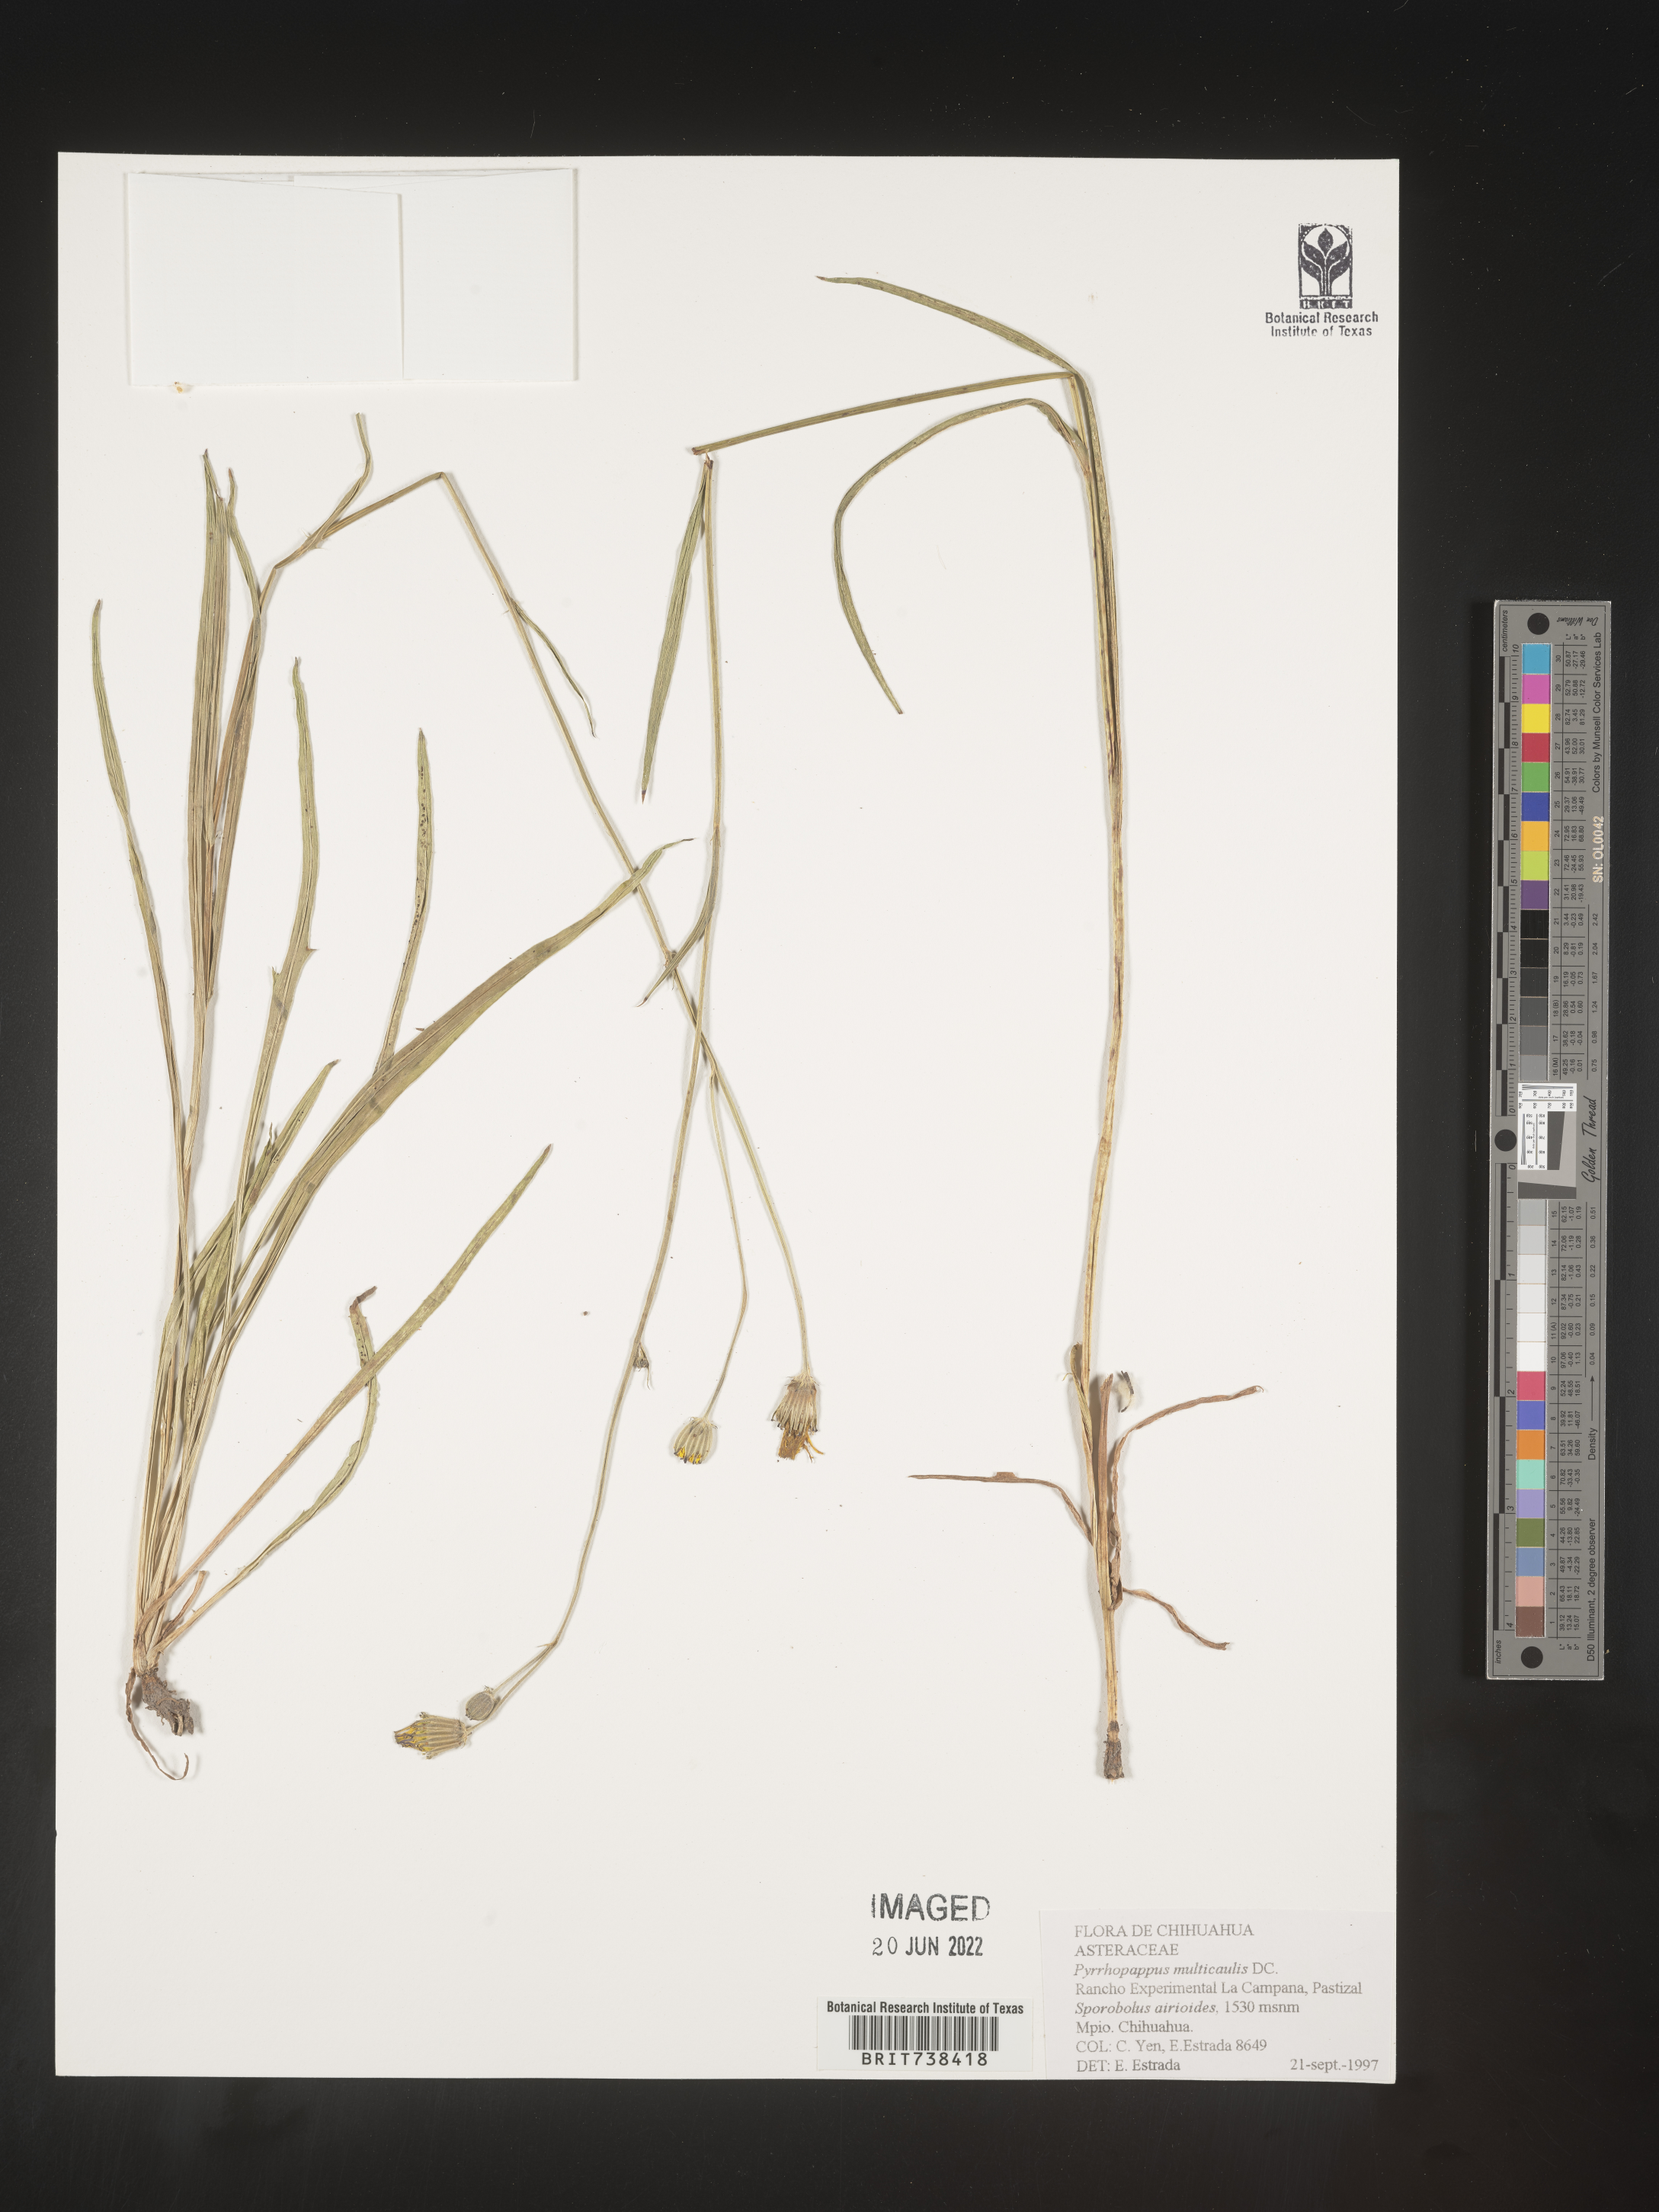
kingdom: Plantae
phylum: Tracheophyta
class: Magnoliopsida
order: Asterales
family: Asteraceae
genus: Pyrrhopappus
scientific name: Pyrrhopappus
